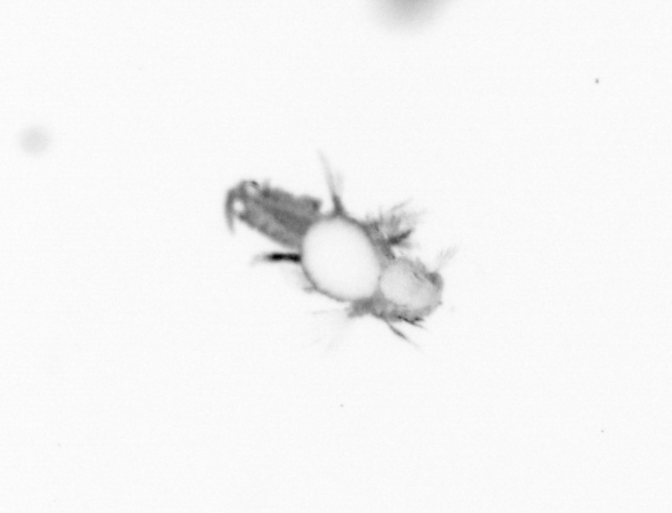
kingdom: Animalia
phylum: Annelida
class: Polychaeta
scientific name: Polychaeta
